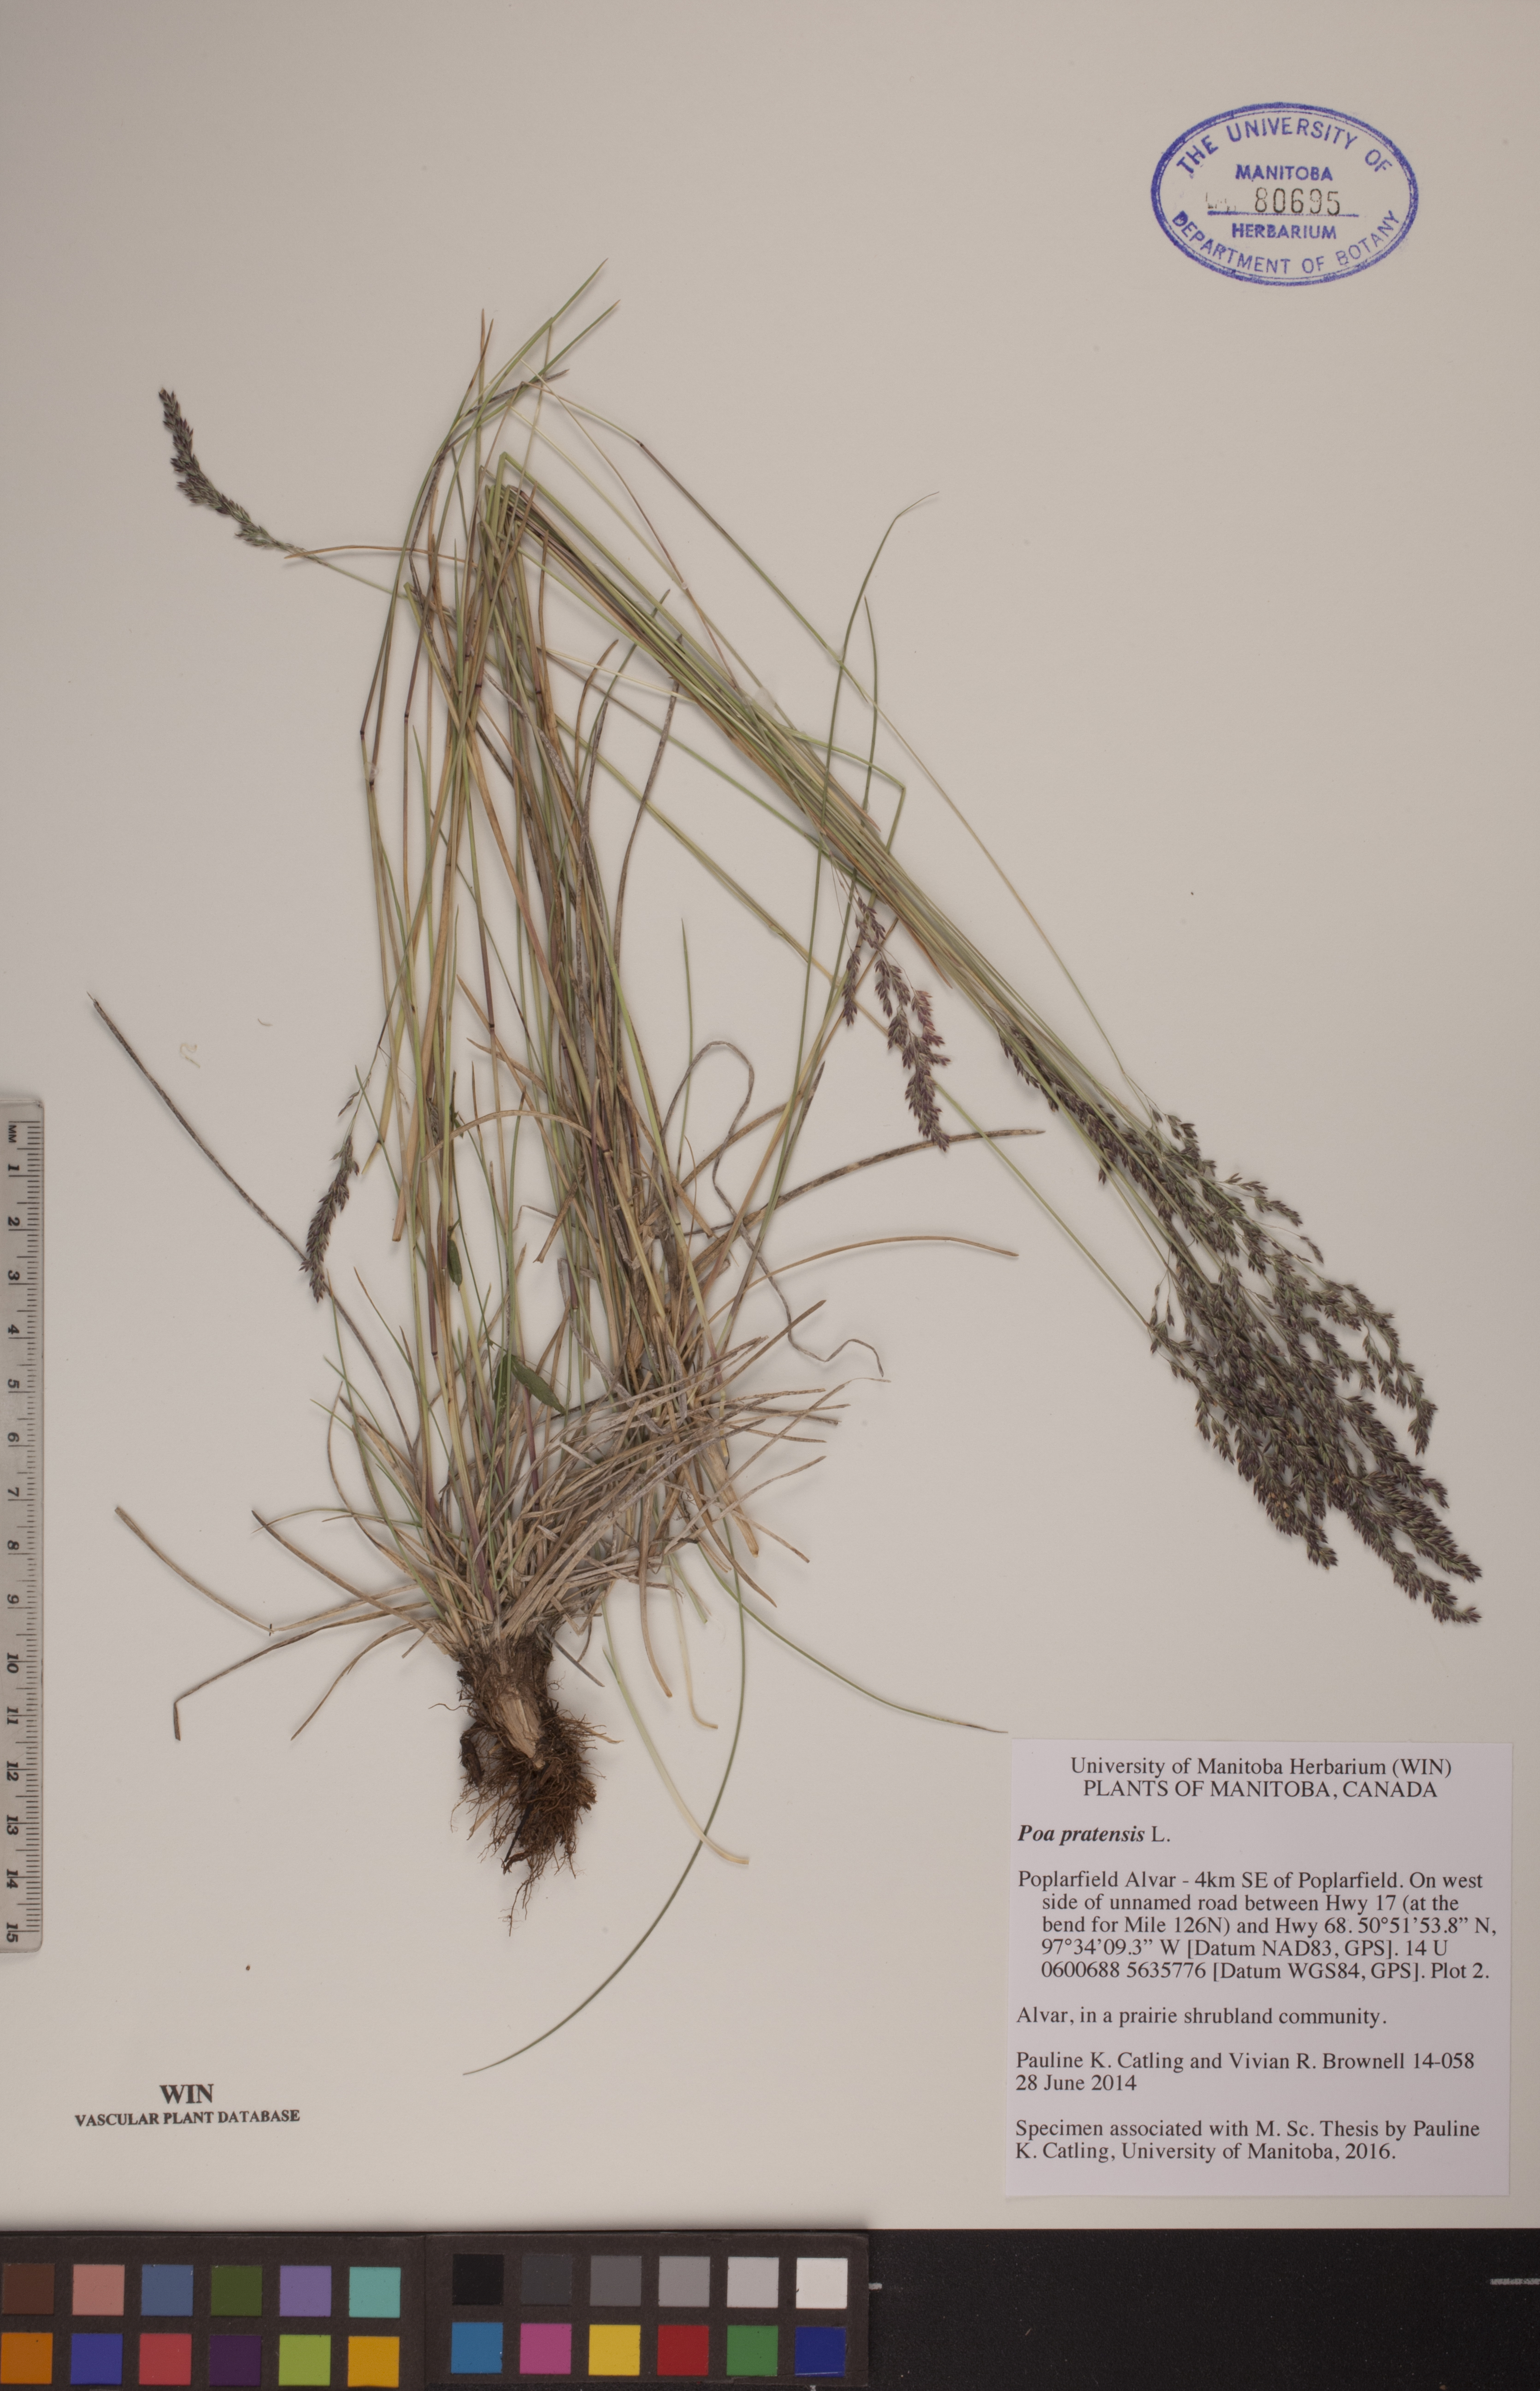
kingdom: Plantae
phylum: Tracheophyta
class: Liliopsida
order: Poales
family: Poaceae
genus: Poa
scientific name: Poa pratensis
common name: Kentucky bluegrass
